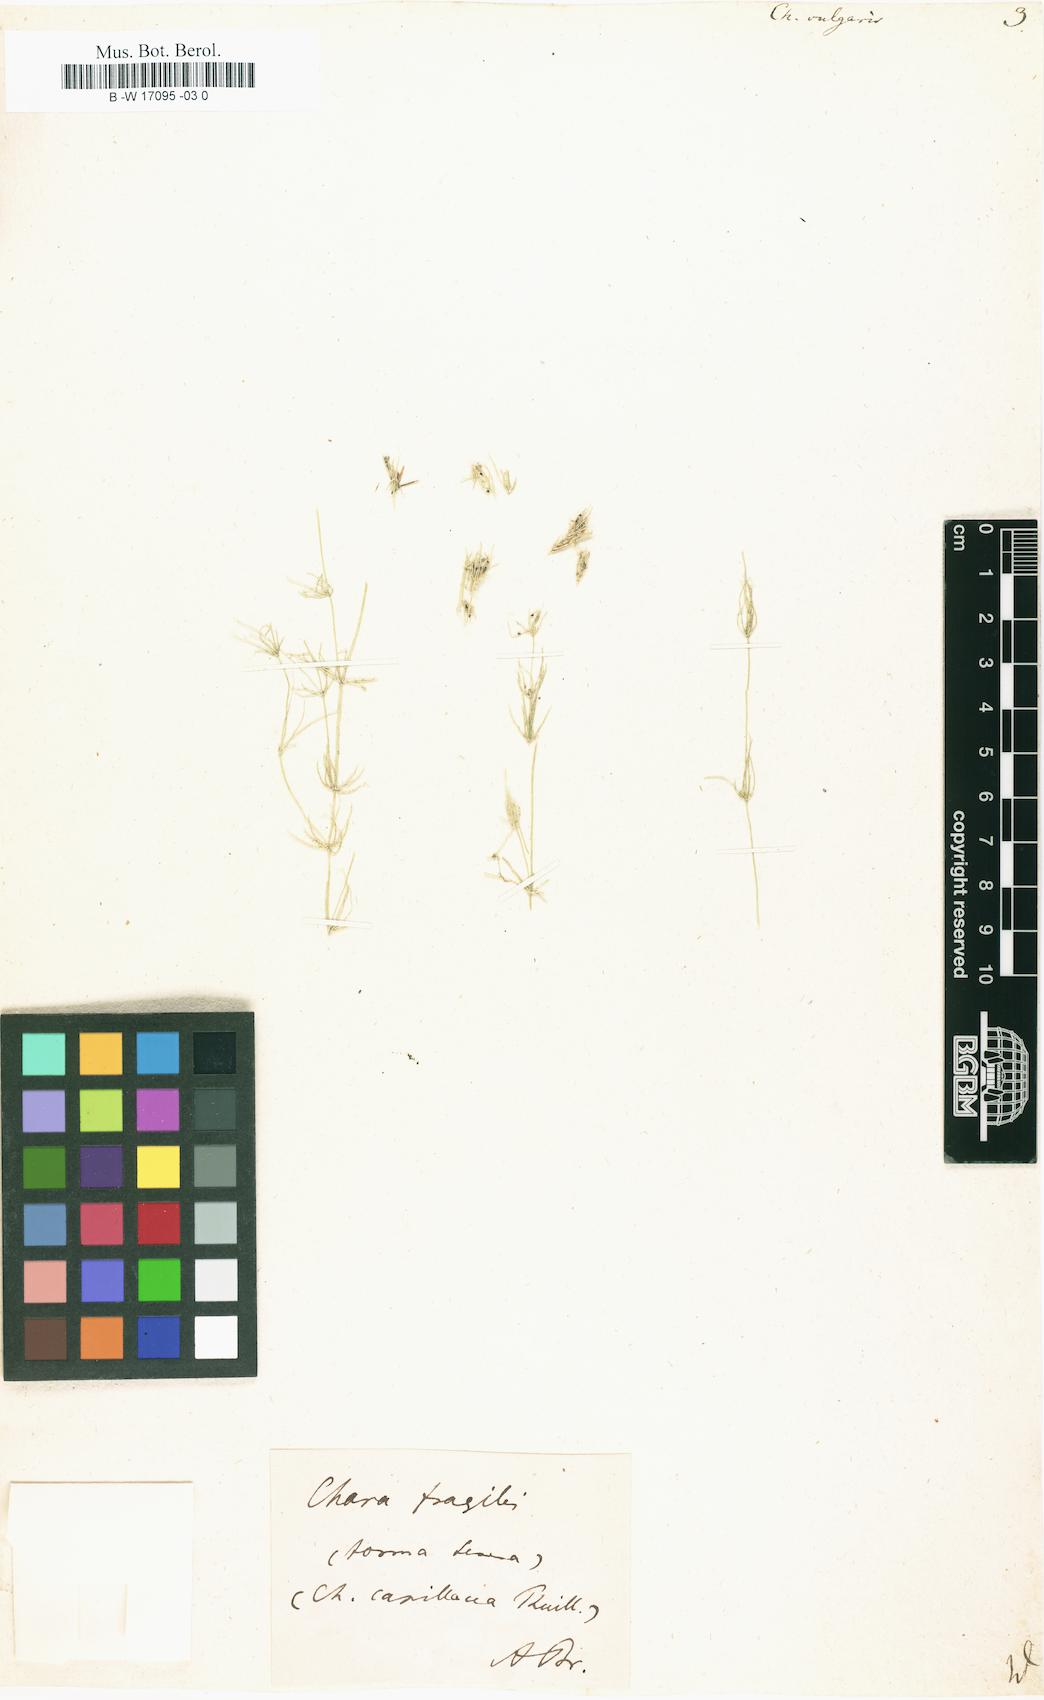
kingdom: Plantae
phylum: Charophyta
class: Charophyceae
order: Charales
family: Characeae
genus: Chara
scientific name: Chara vulgaris
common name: Common stonewort
